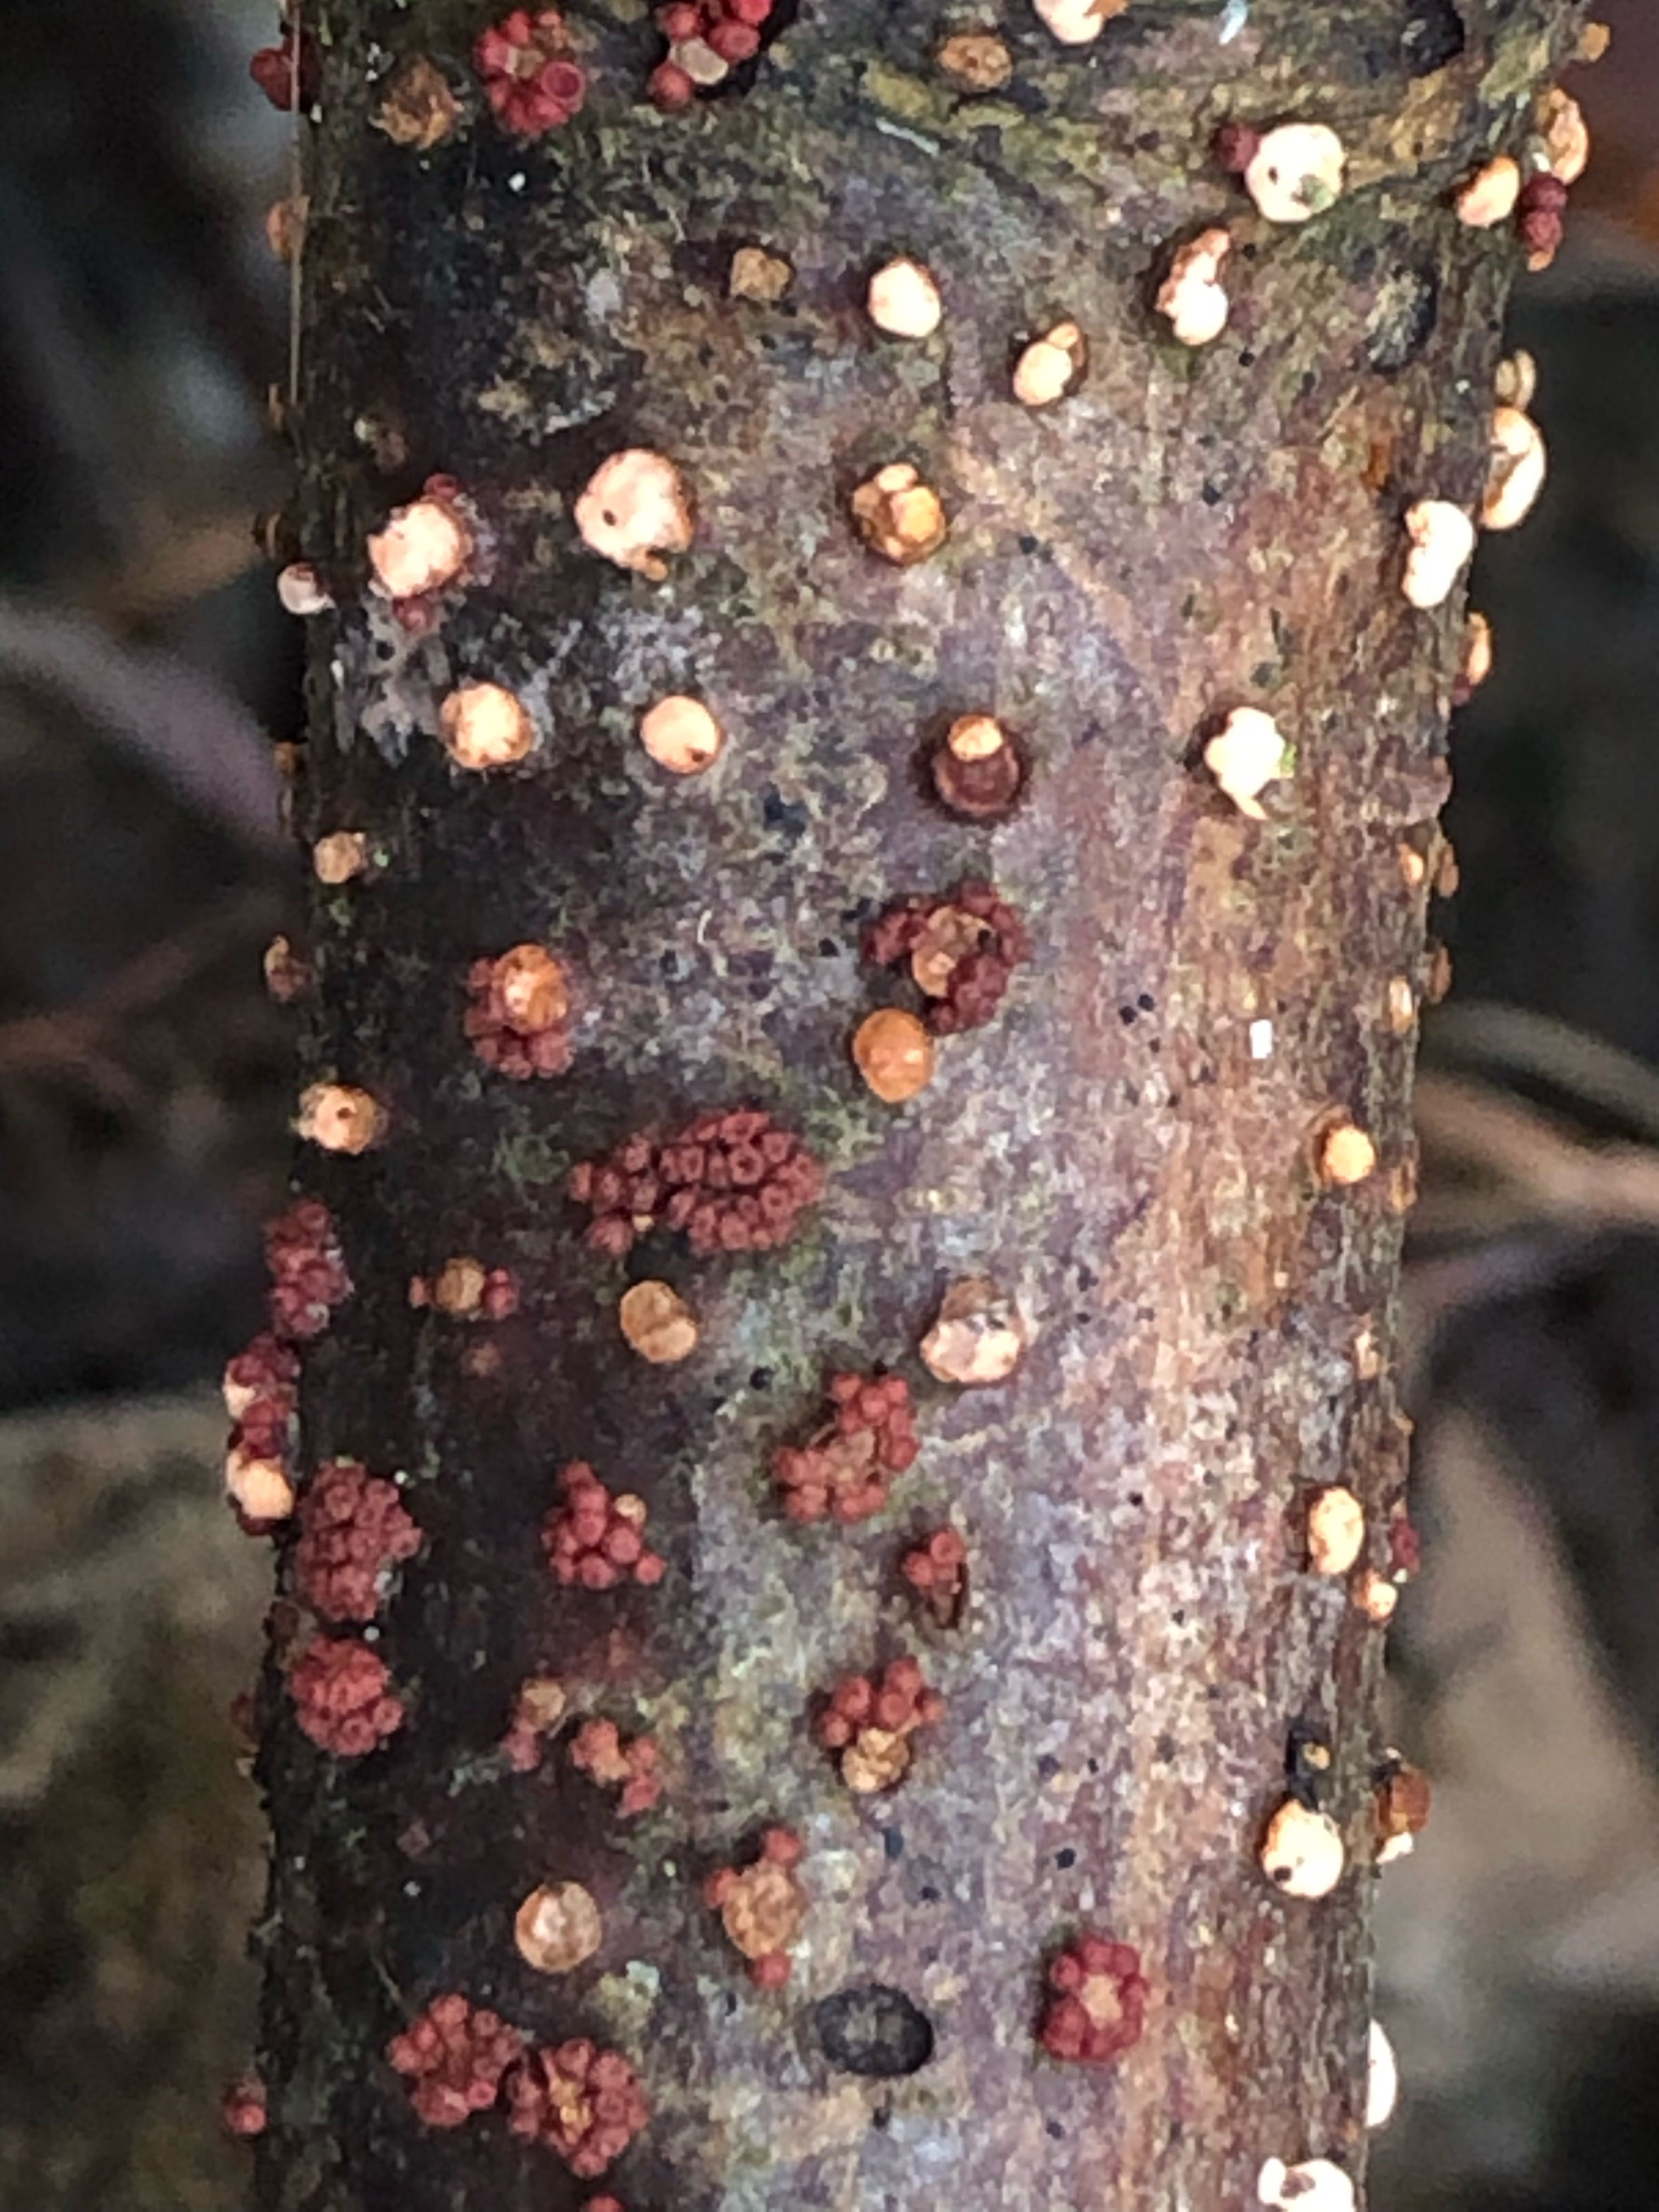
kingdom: Fungi
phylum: Ascomycota
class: Sordariomycetes
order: Hypocreales
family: Nectriaceae
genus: Nectria
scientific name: Nectria cinnabarina
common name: almindelig cinnobersvamp
